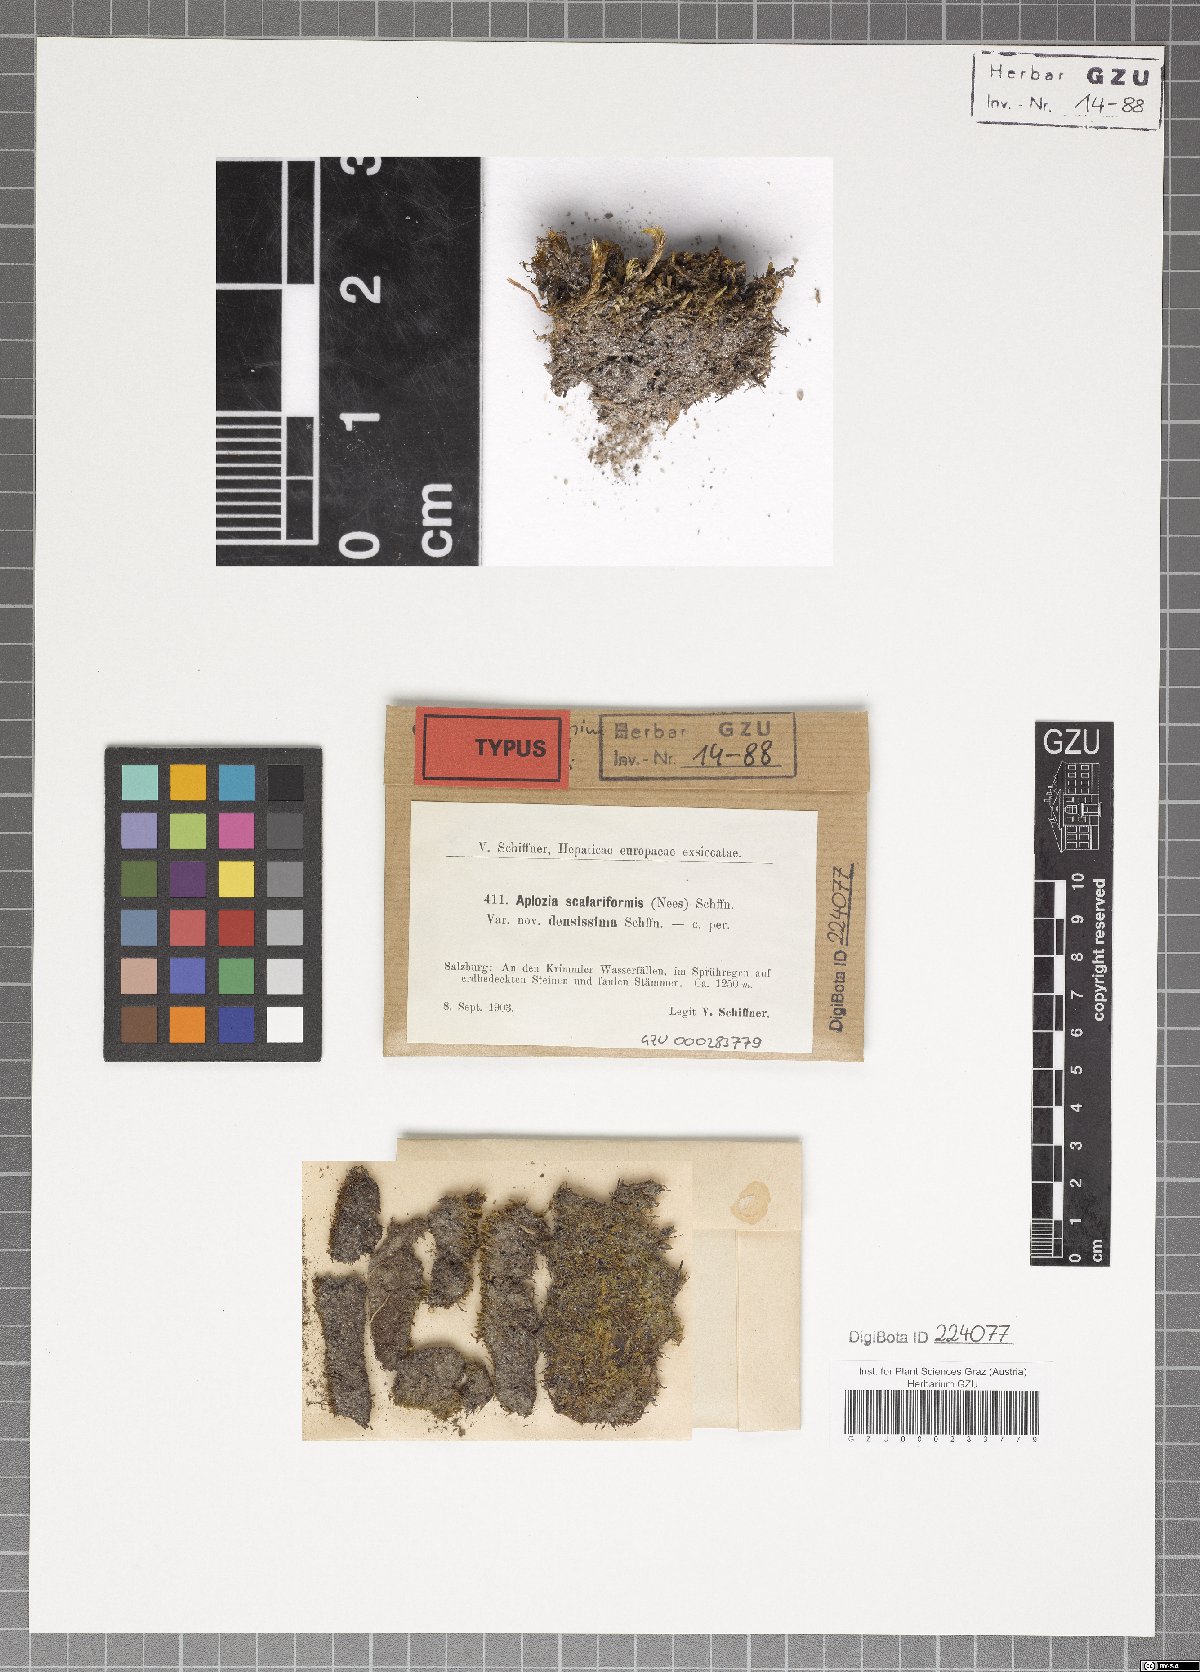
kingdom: Plantae
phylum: Marchantiophyta
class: Jungermanniopsida
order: Jungermanniales
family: Solenostomataceae
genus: Solenostoma
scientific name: Solenostoma confertissimum
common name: Kidney flapwort
